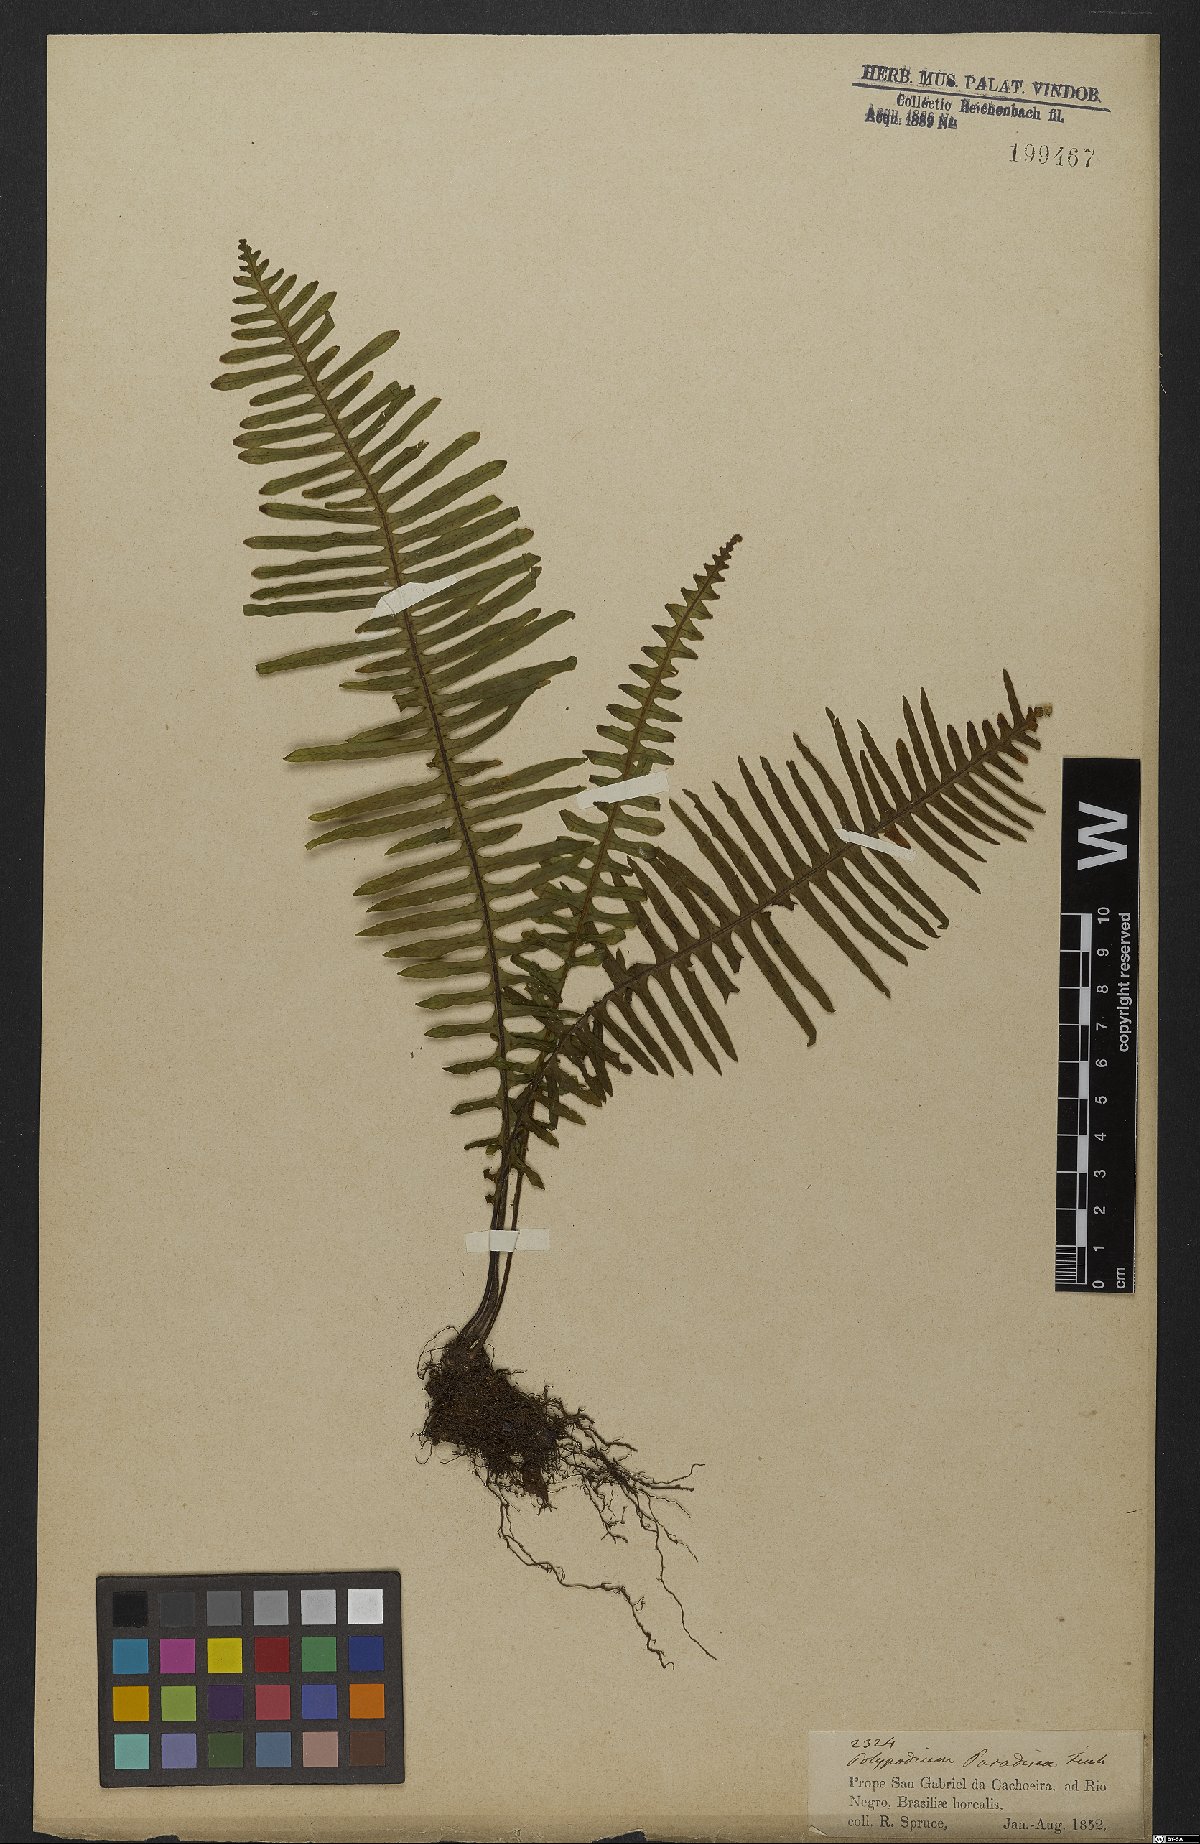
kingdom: Plantae
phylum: Tracheophyta
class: Polypodiopsida
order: Polypodiales
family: Polypodiaceae
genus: Pecluma
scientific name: Pecluma paradiseae
